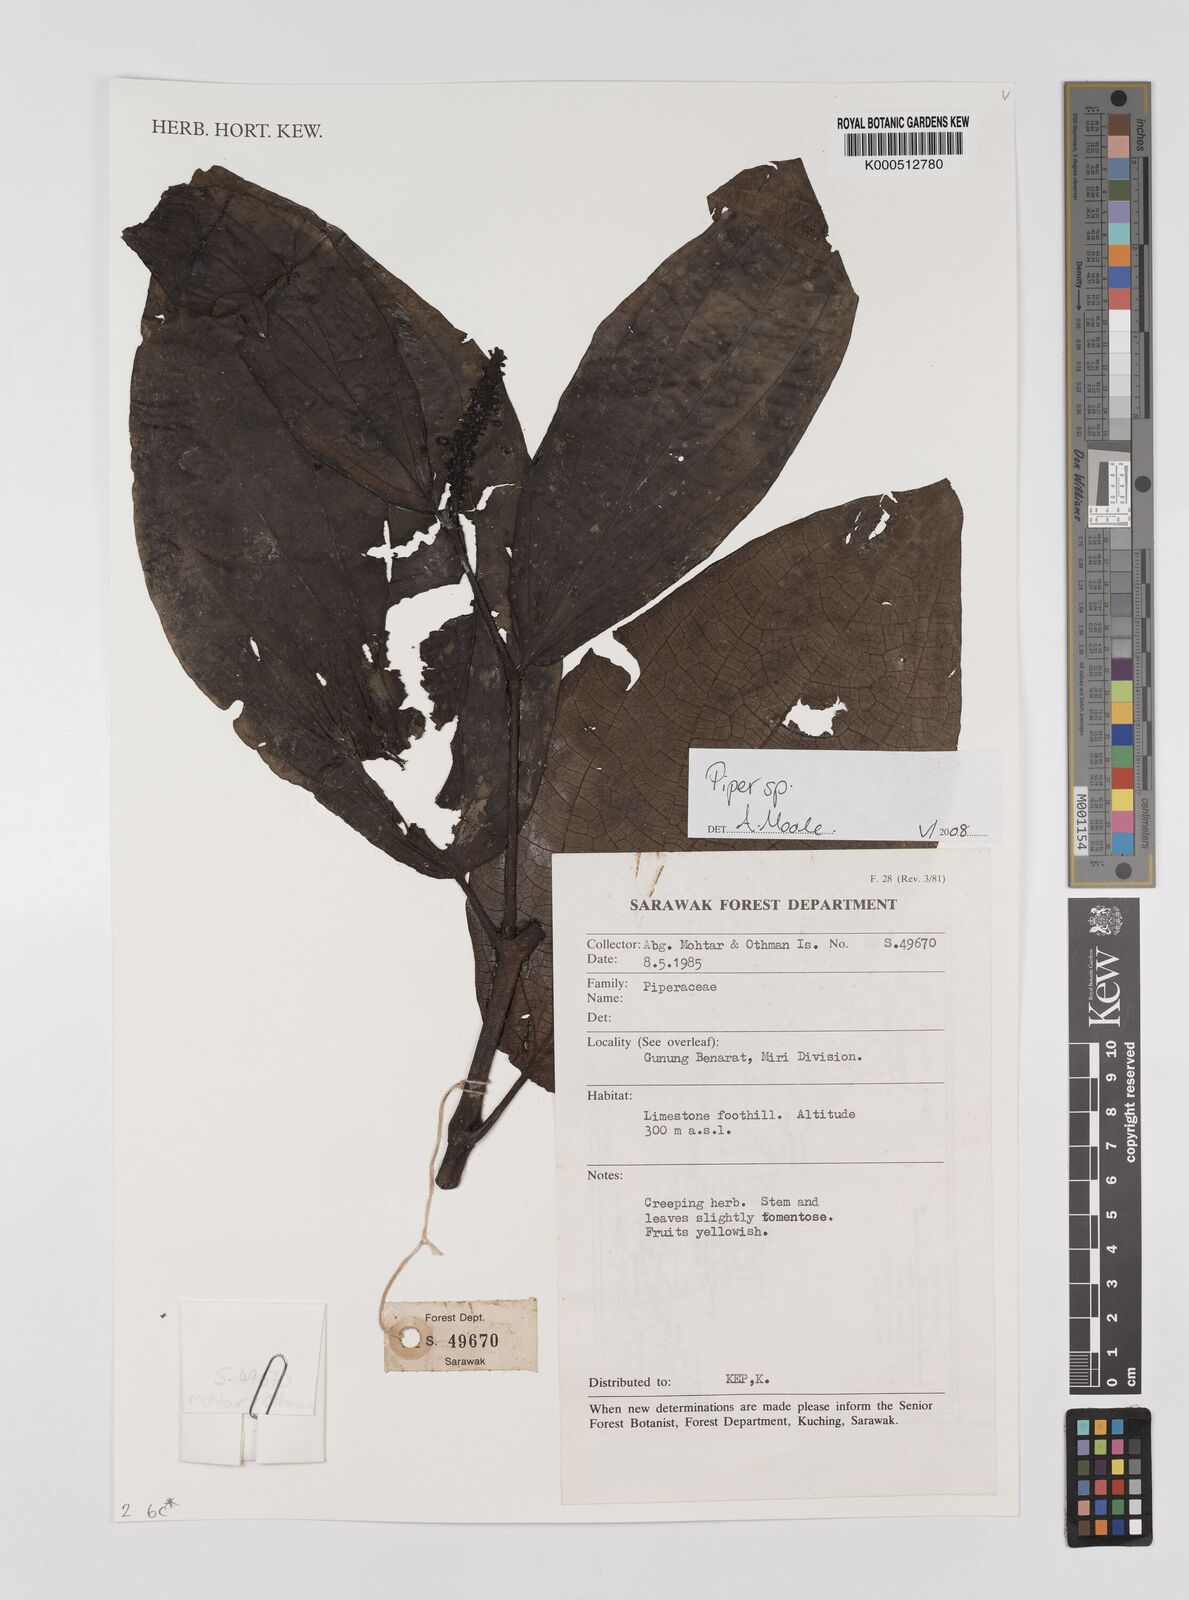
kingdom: Plantae
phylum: Tracheophyta
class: Magnoliopsida
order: Piperales
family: Piperaceae
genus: Piper
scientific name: Piper
